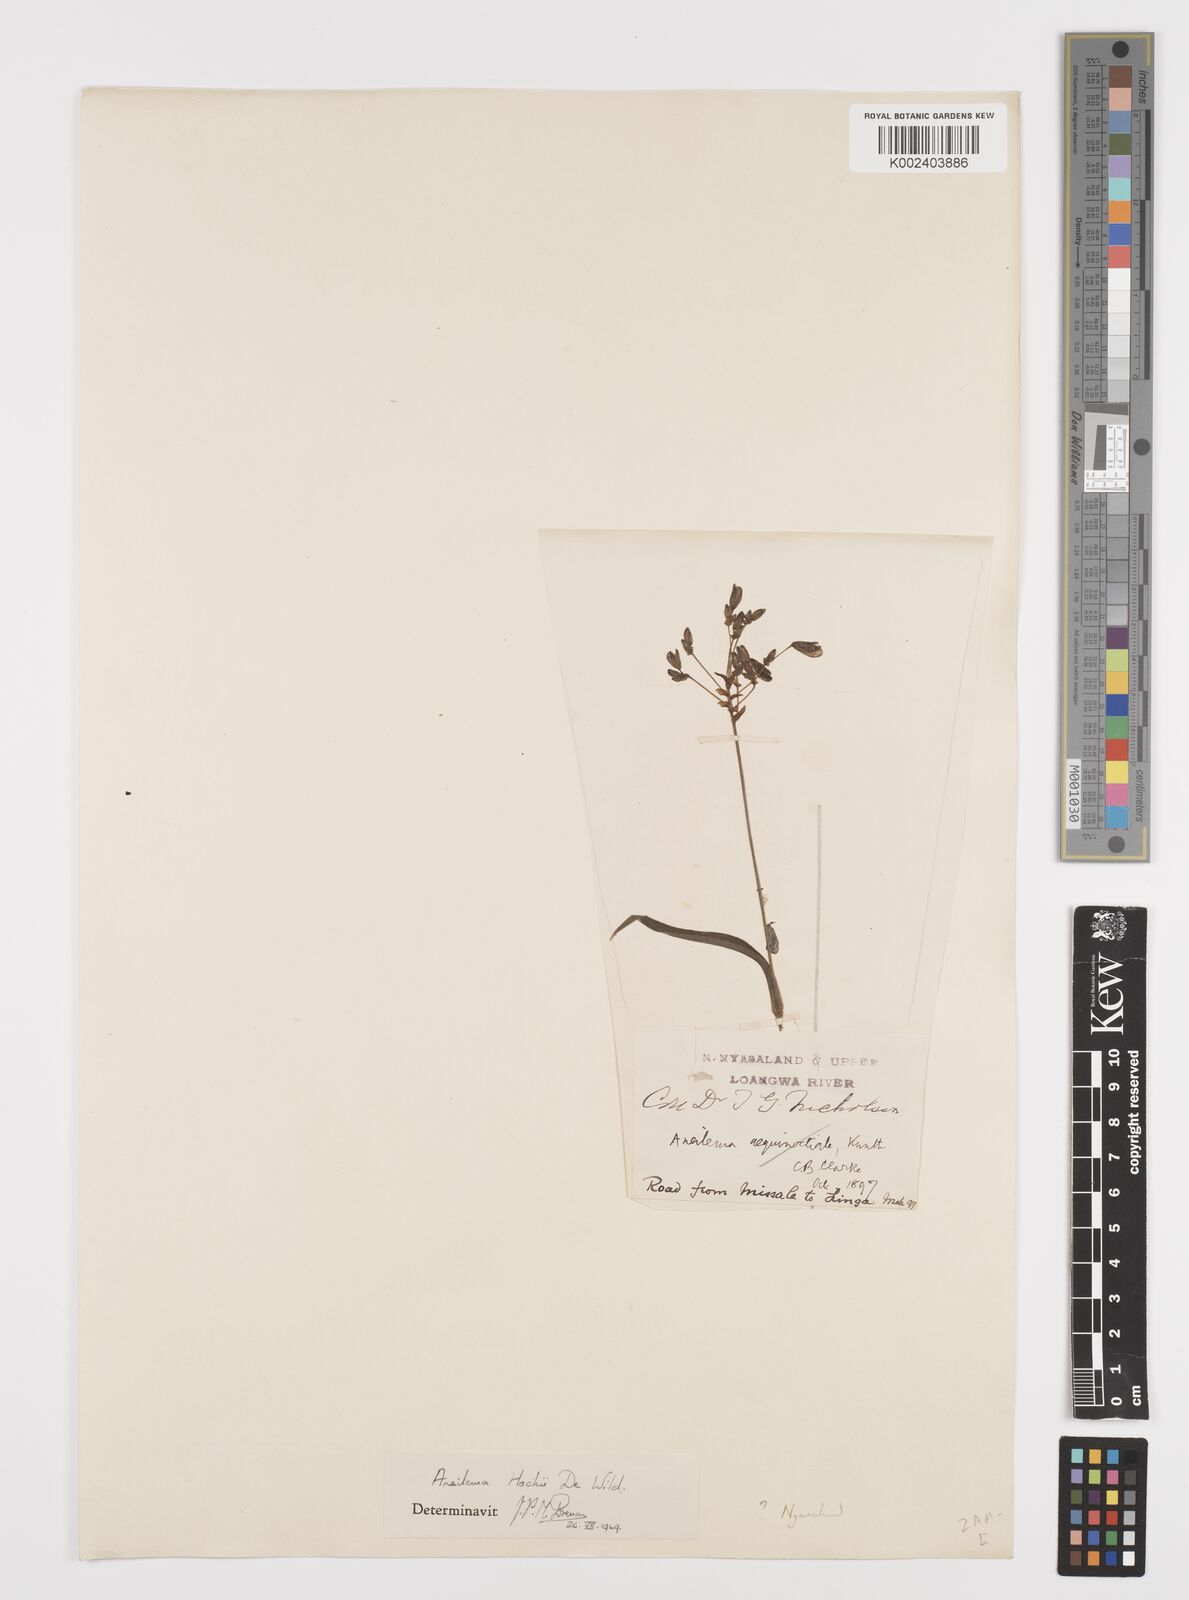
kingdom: Plantae
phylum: Tracheophyta
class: Liliopsida
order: Commelinales
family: Commelinaceae
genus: Aneilema
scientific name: Aneilema hockii
